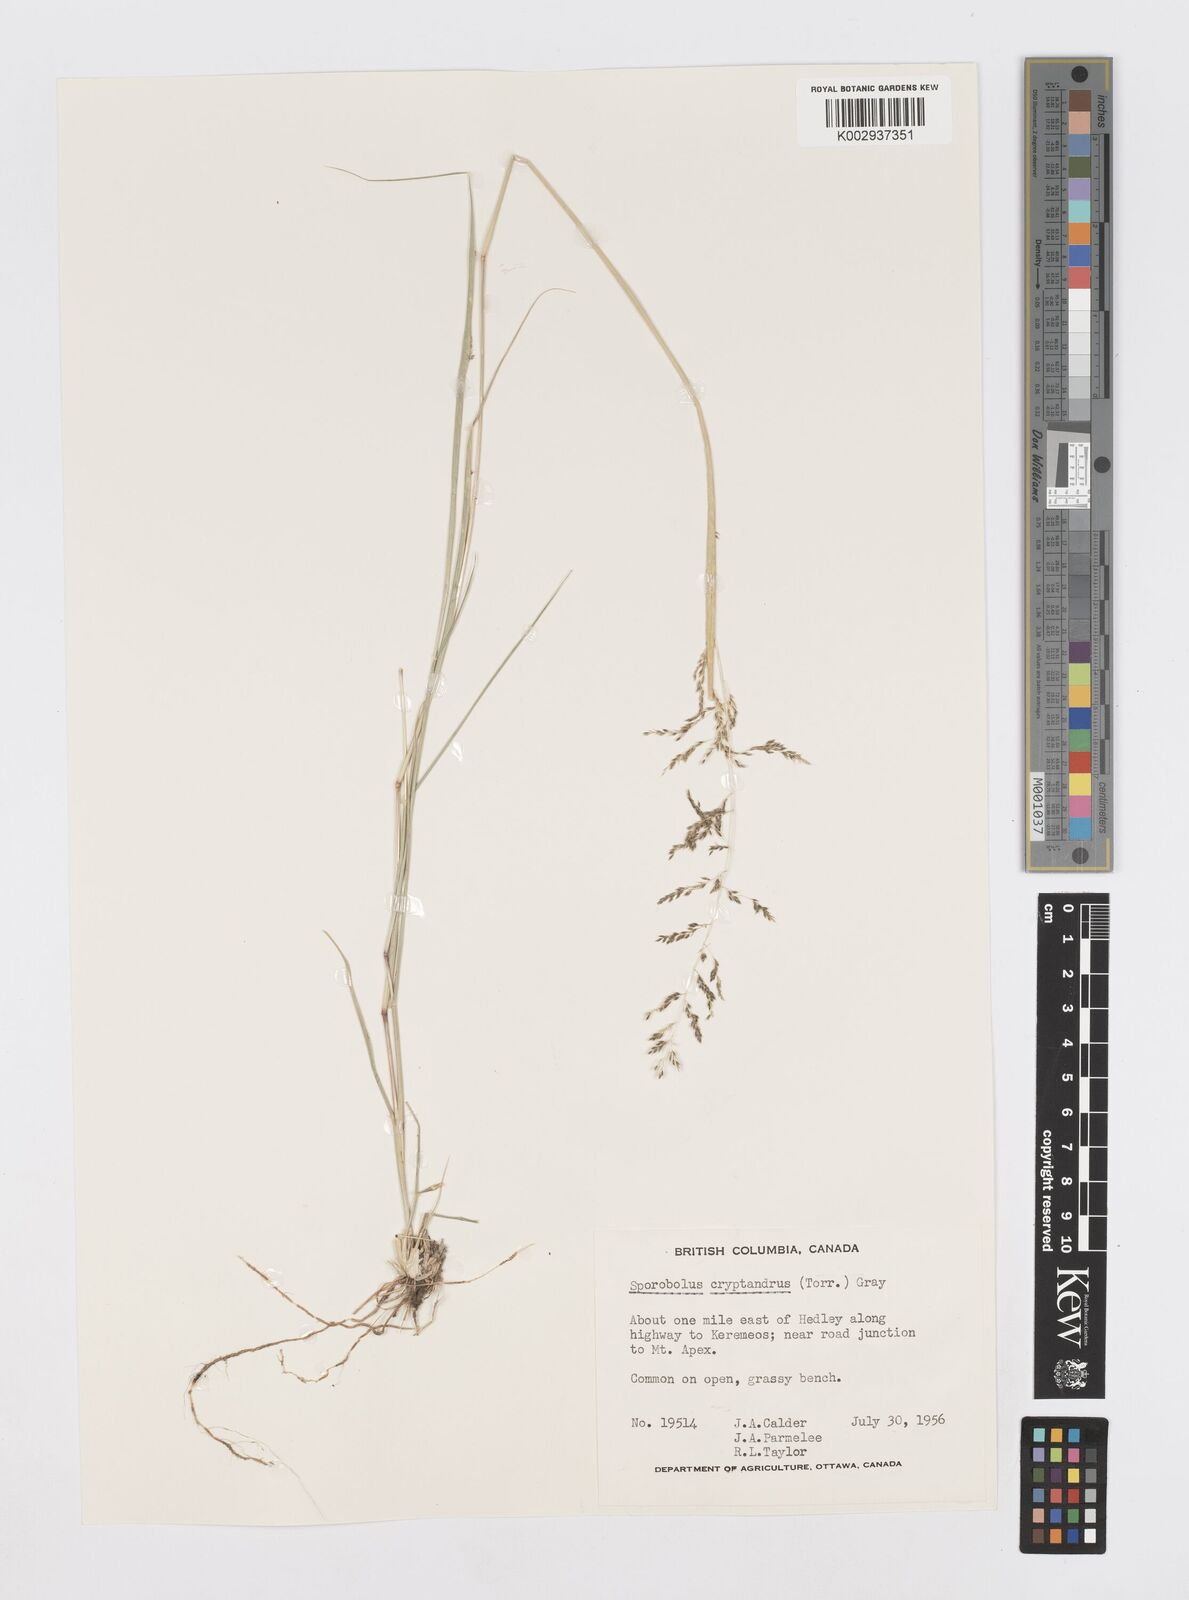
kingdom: Plantae
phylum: Tracheophyta
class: Liliopsida
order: Poales
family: Poaceae
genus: Sporobolus
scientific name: Sporobolus cryptandrus
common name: Sand dropseed
